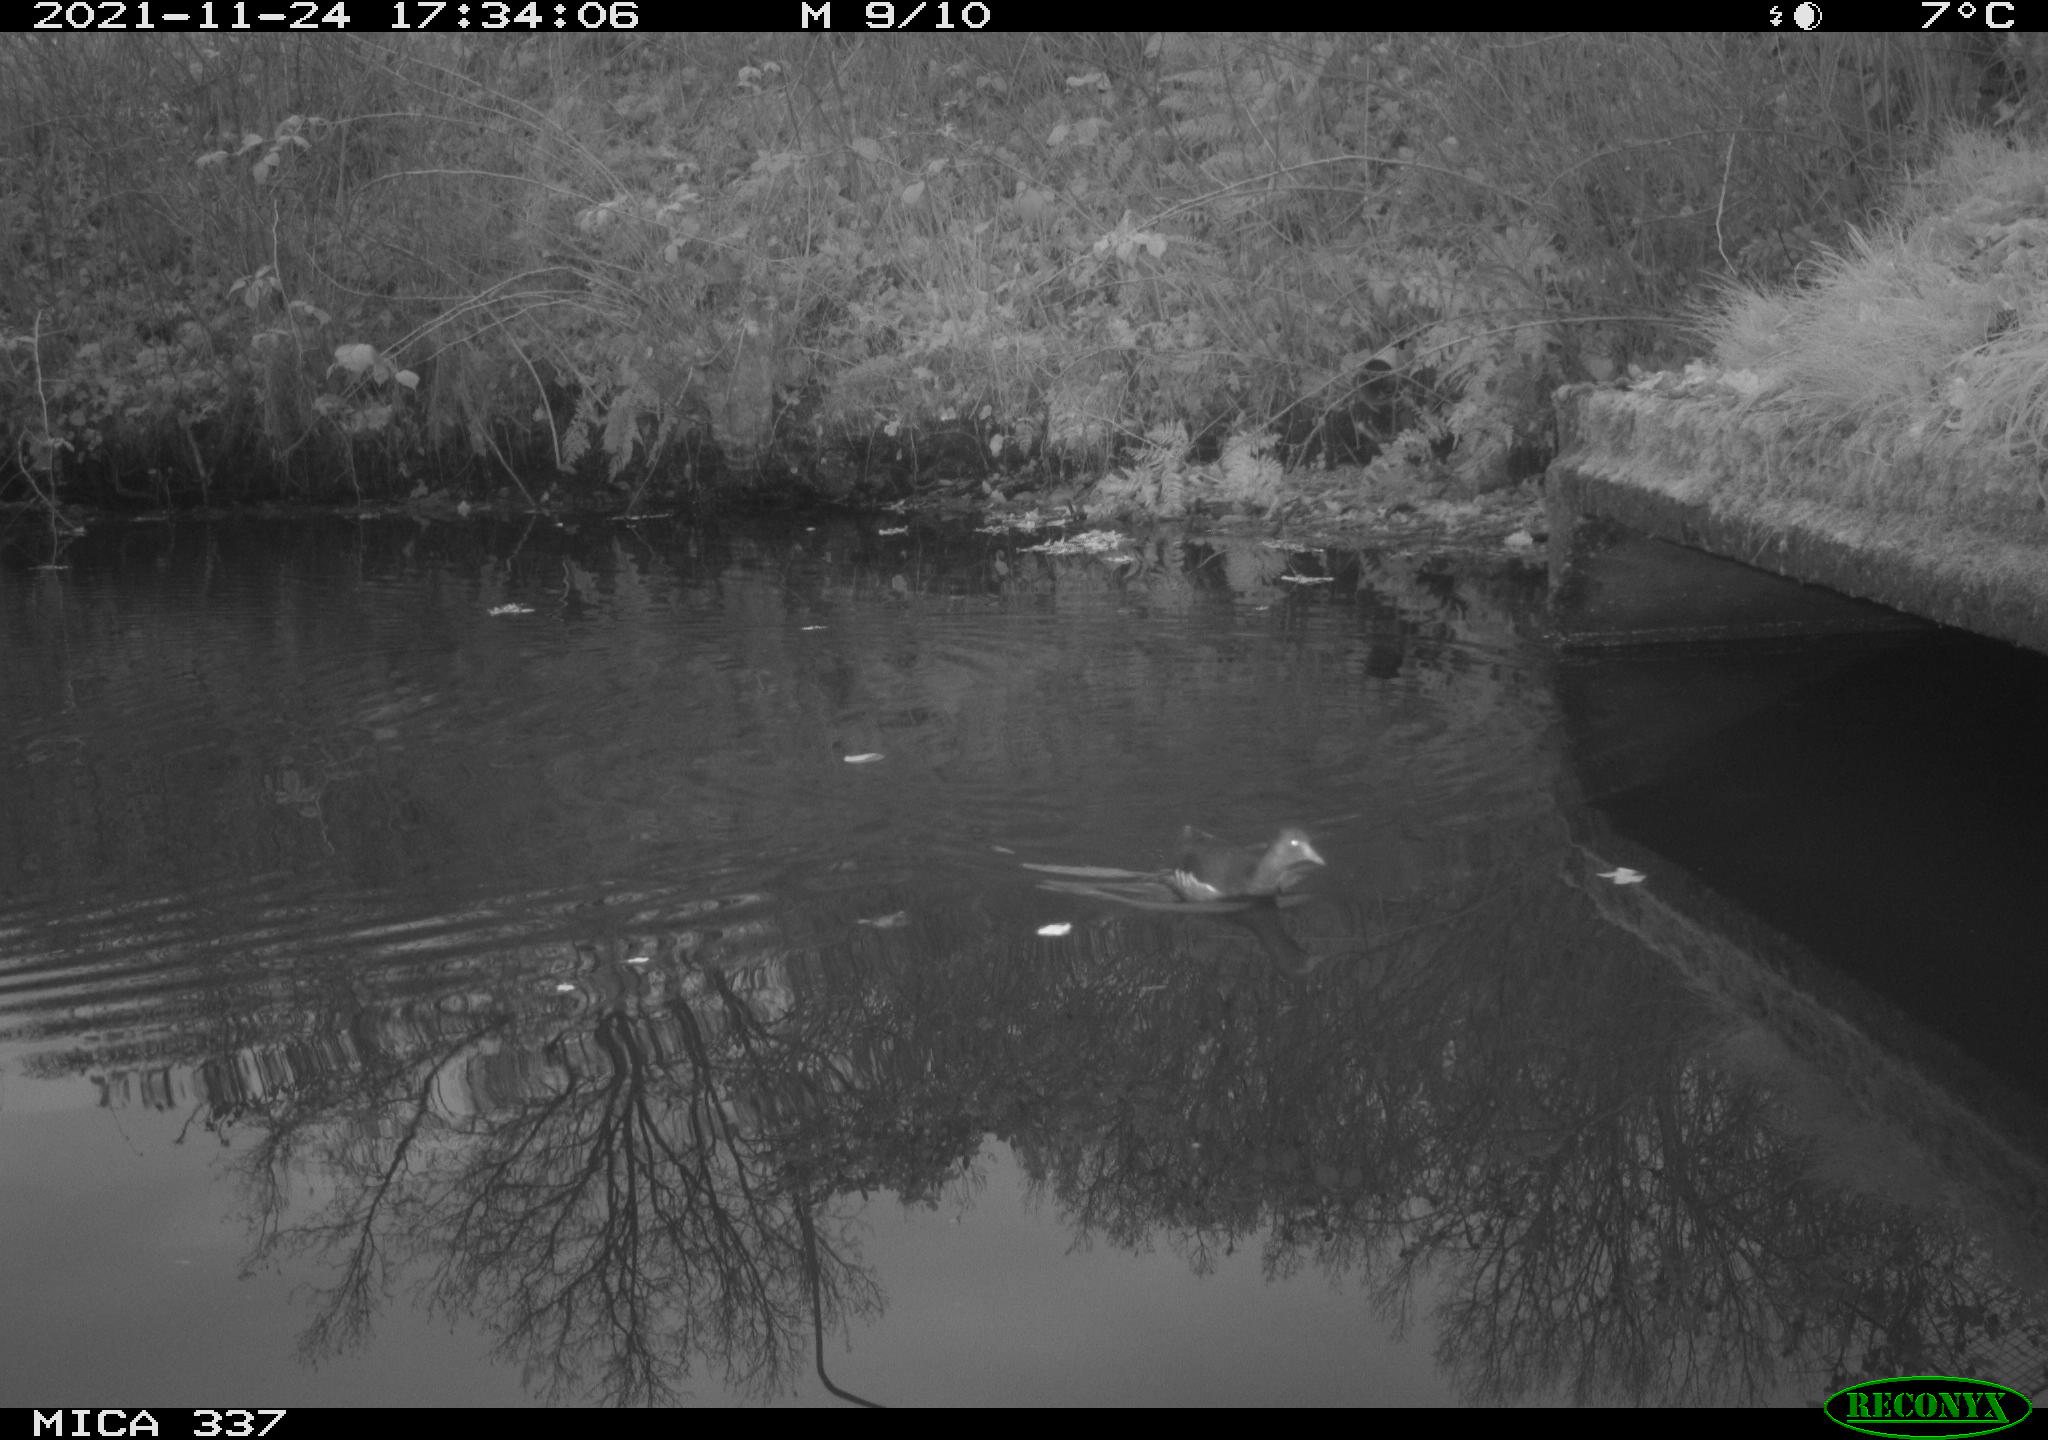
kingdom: Animalia
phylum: Chordata
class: Aves
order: Gruiformes
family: Rallidae
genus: Gallinula
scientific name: Gallinula chloropus
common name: Common moorhen
